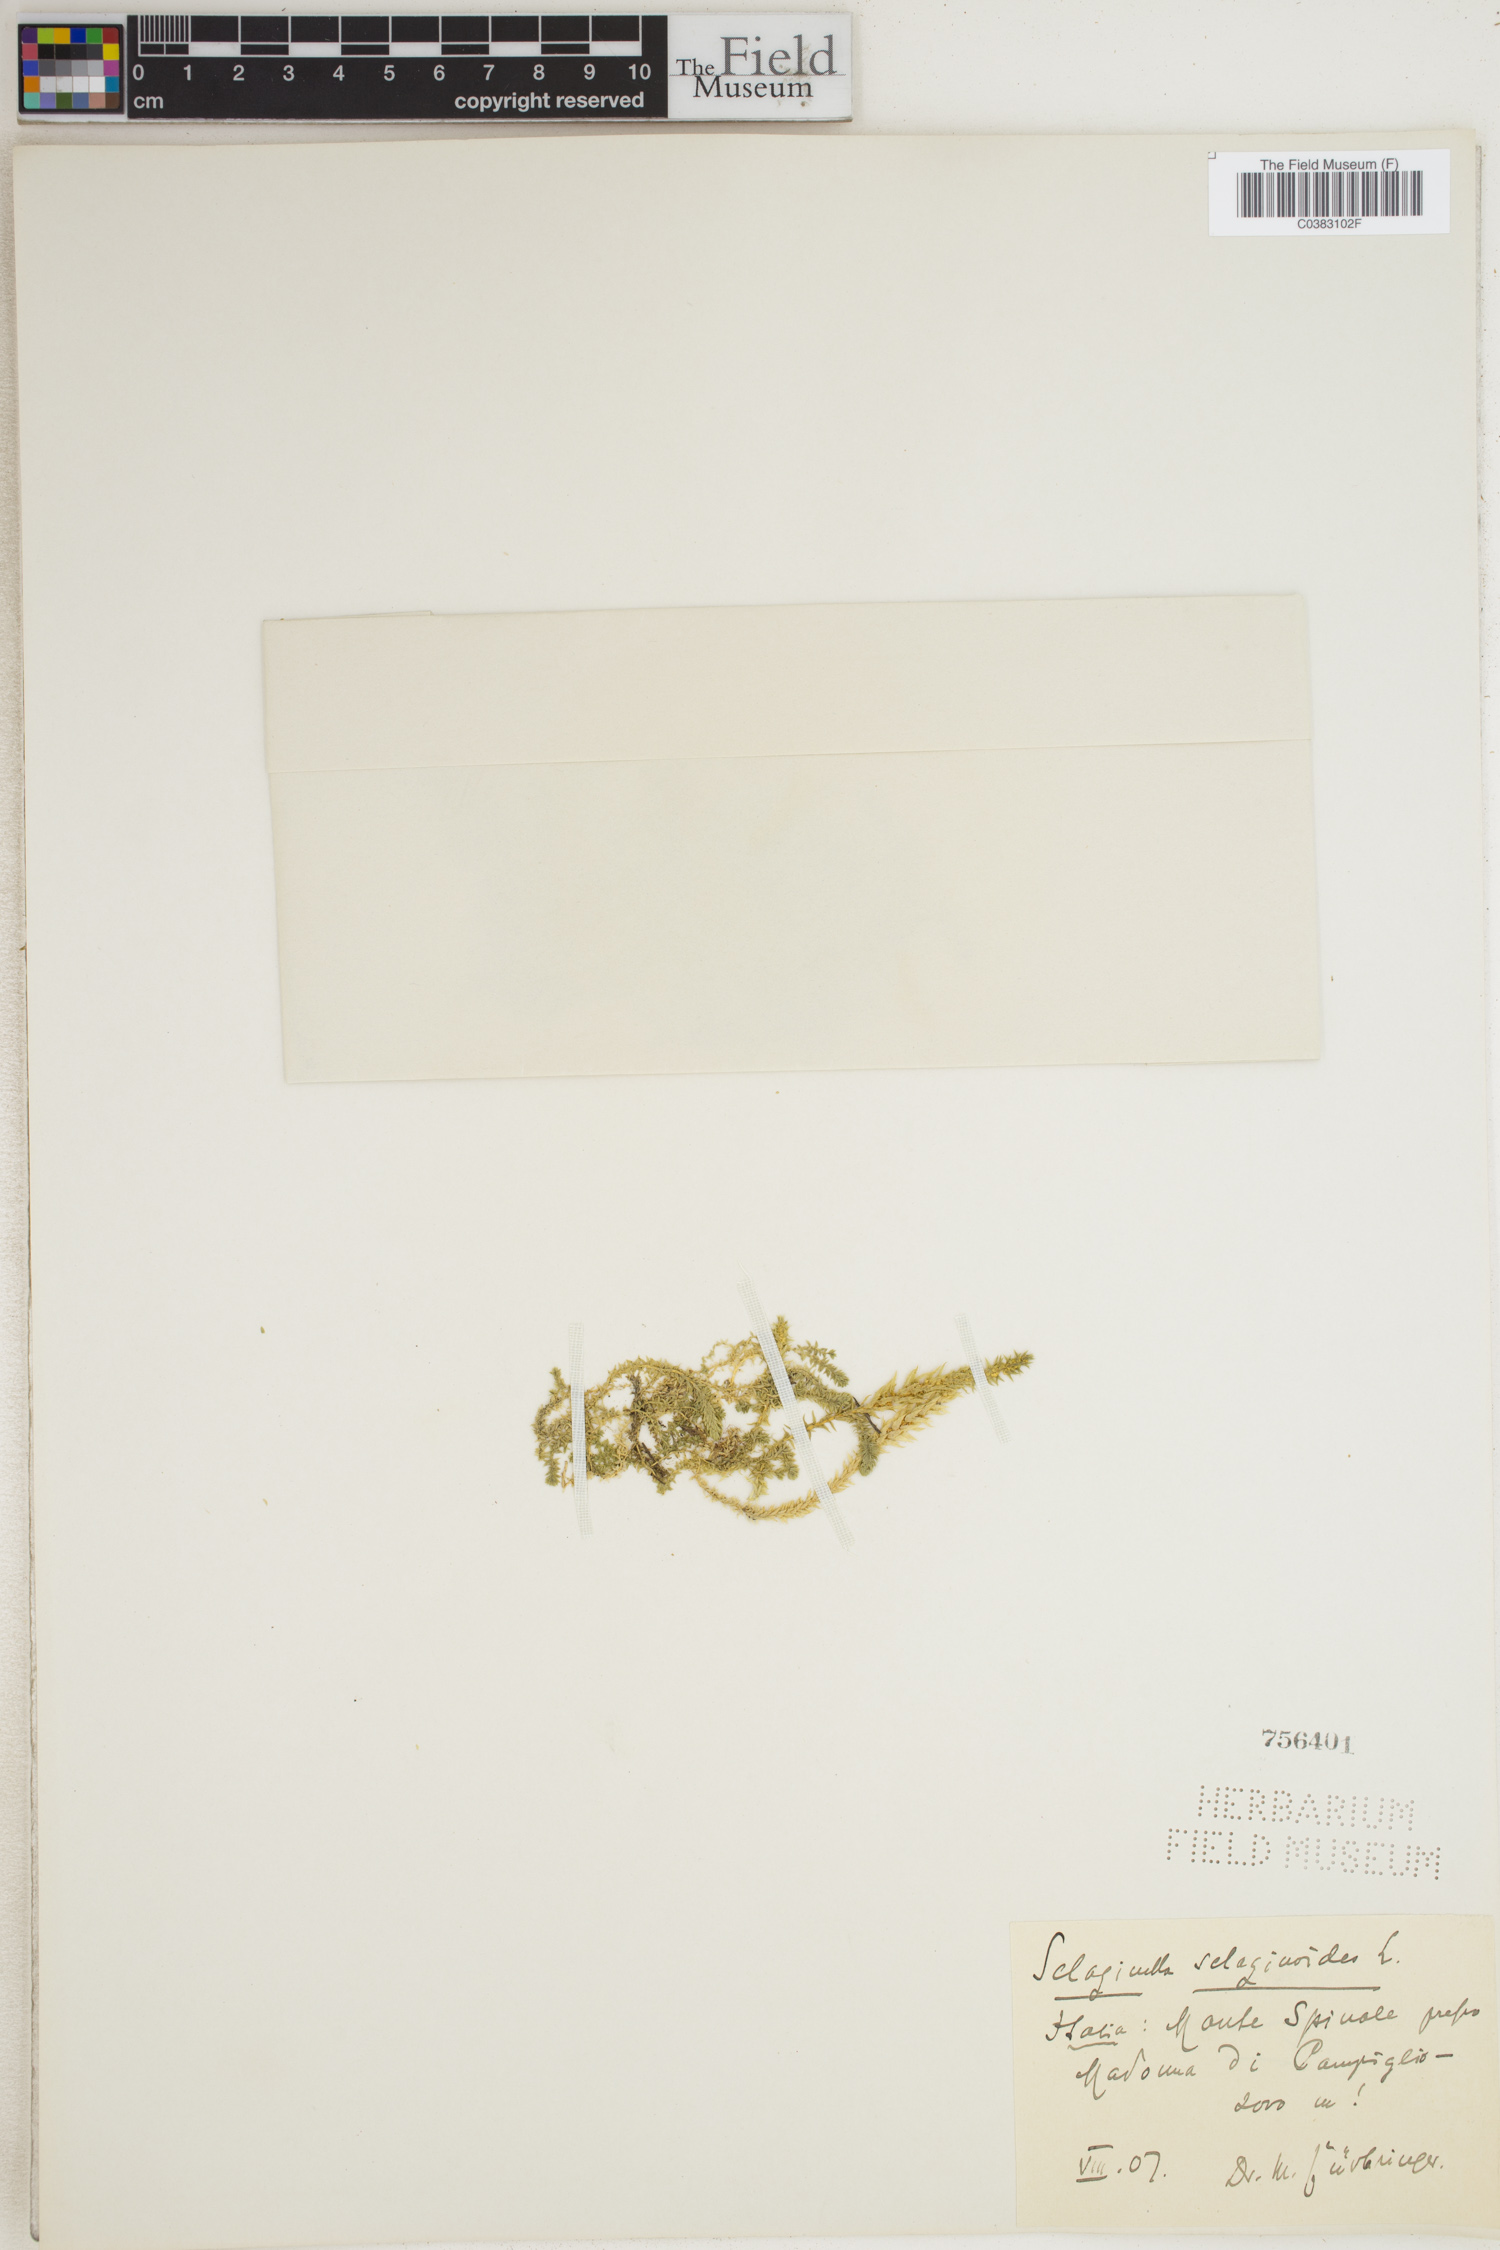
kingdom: Plantae
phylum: Tracheophyta
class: Lycopodiopsida
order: Selaginellales
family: Selaginellaceae
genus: Selaginella
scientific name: Selaginella selaginoides
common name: Prickly mountain-moss
